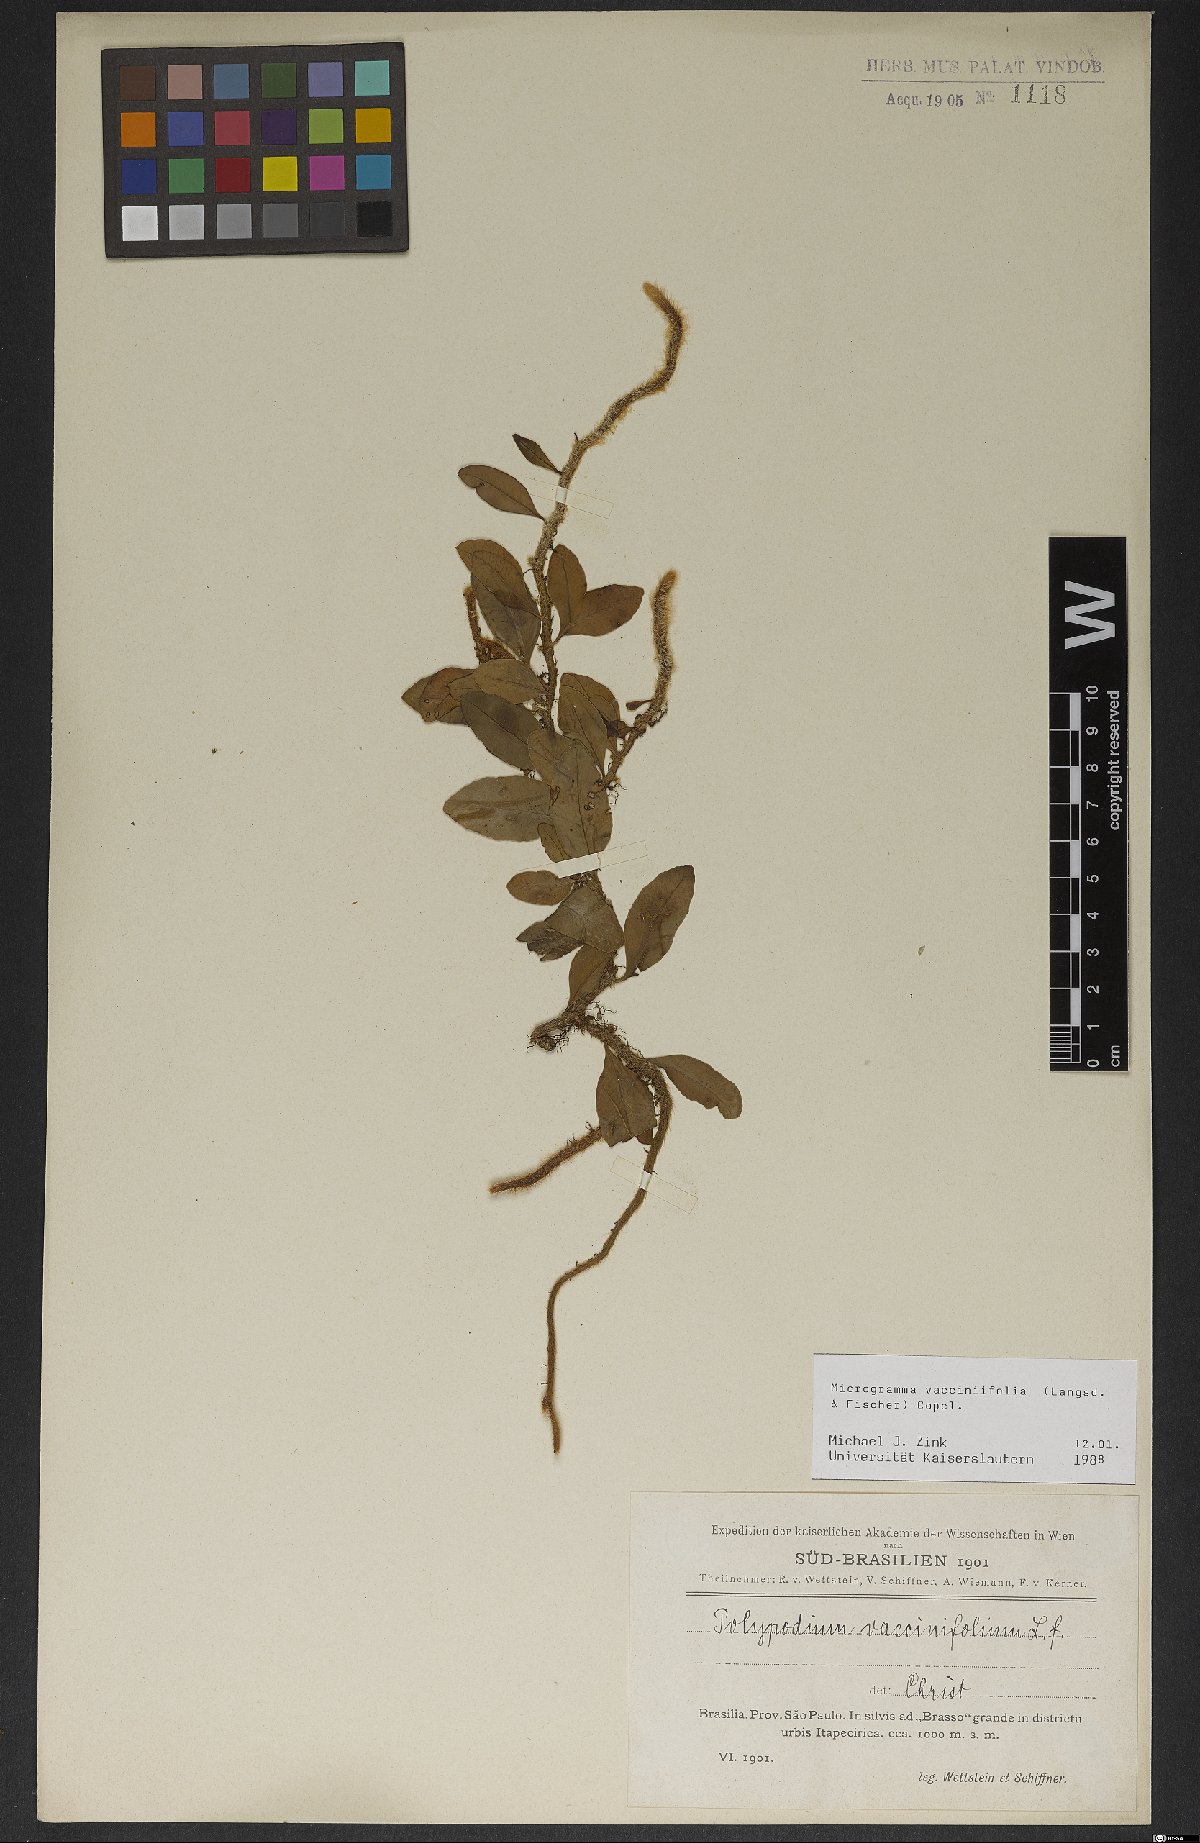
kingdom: Plantae
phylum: Tracheophyta
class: Polypodiopsida
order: Polypodiales
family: Polypodiaceae
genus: Microgramma
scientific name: Microgramma vaccinifolia
